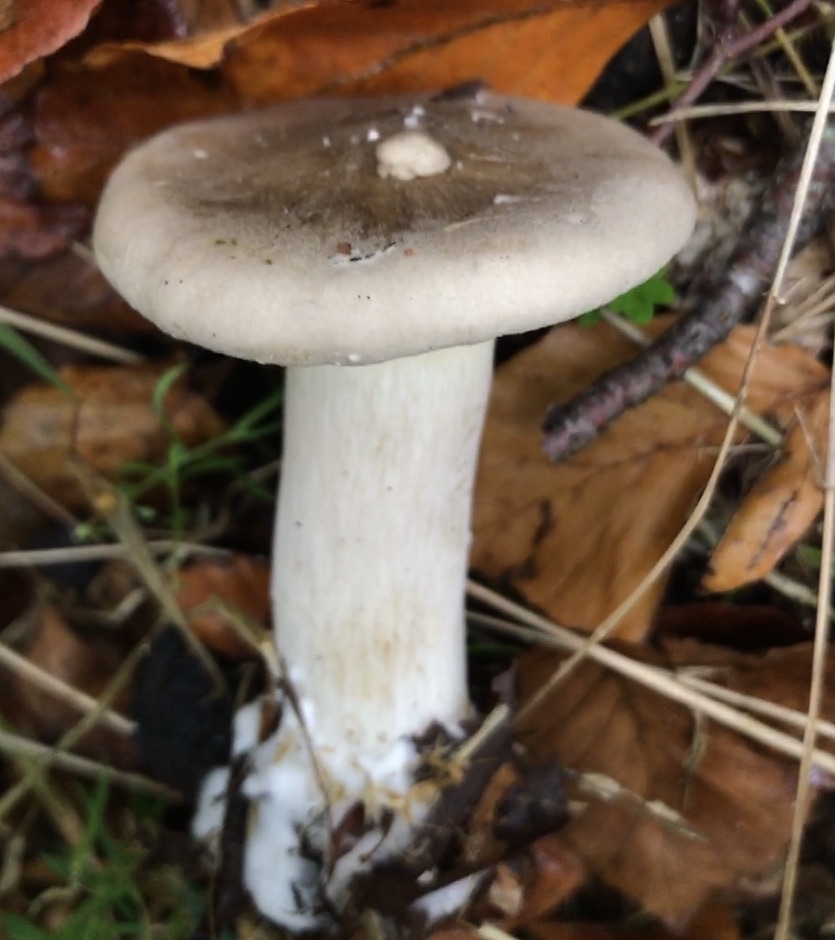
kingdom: Fungi
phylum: Basidiomycota
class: Agaricomycetes
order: Agaricales
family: Tricholomataceae
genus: Clitocybe
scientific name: Clitocybe nebularis
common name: tåge-tragthat
